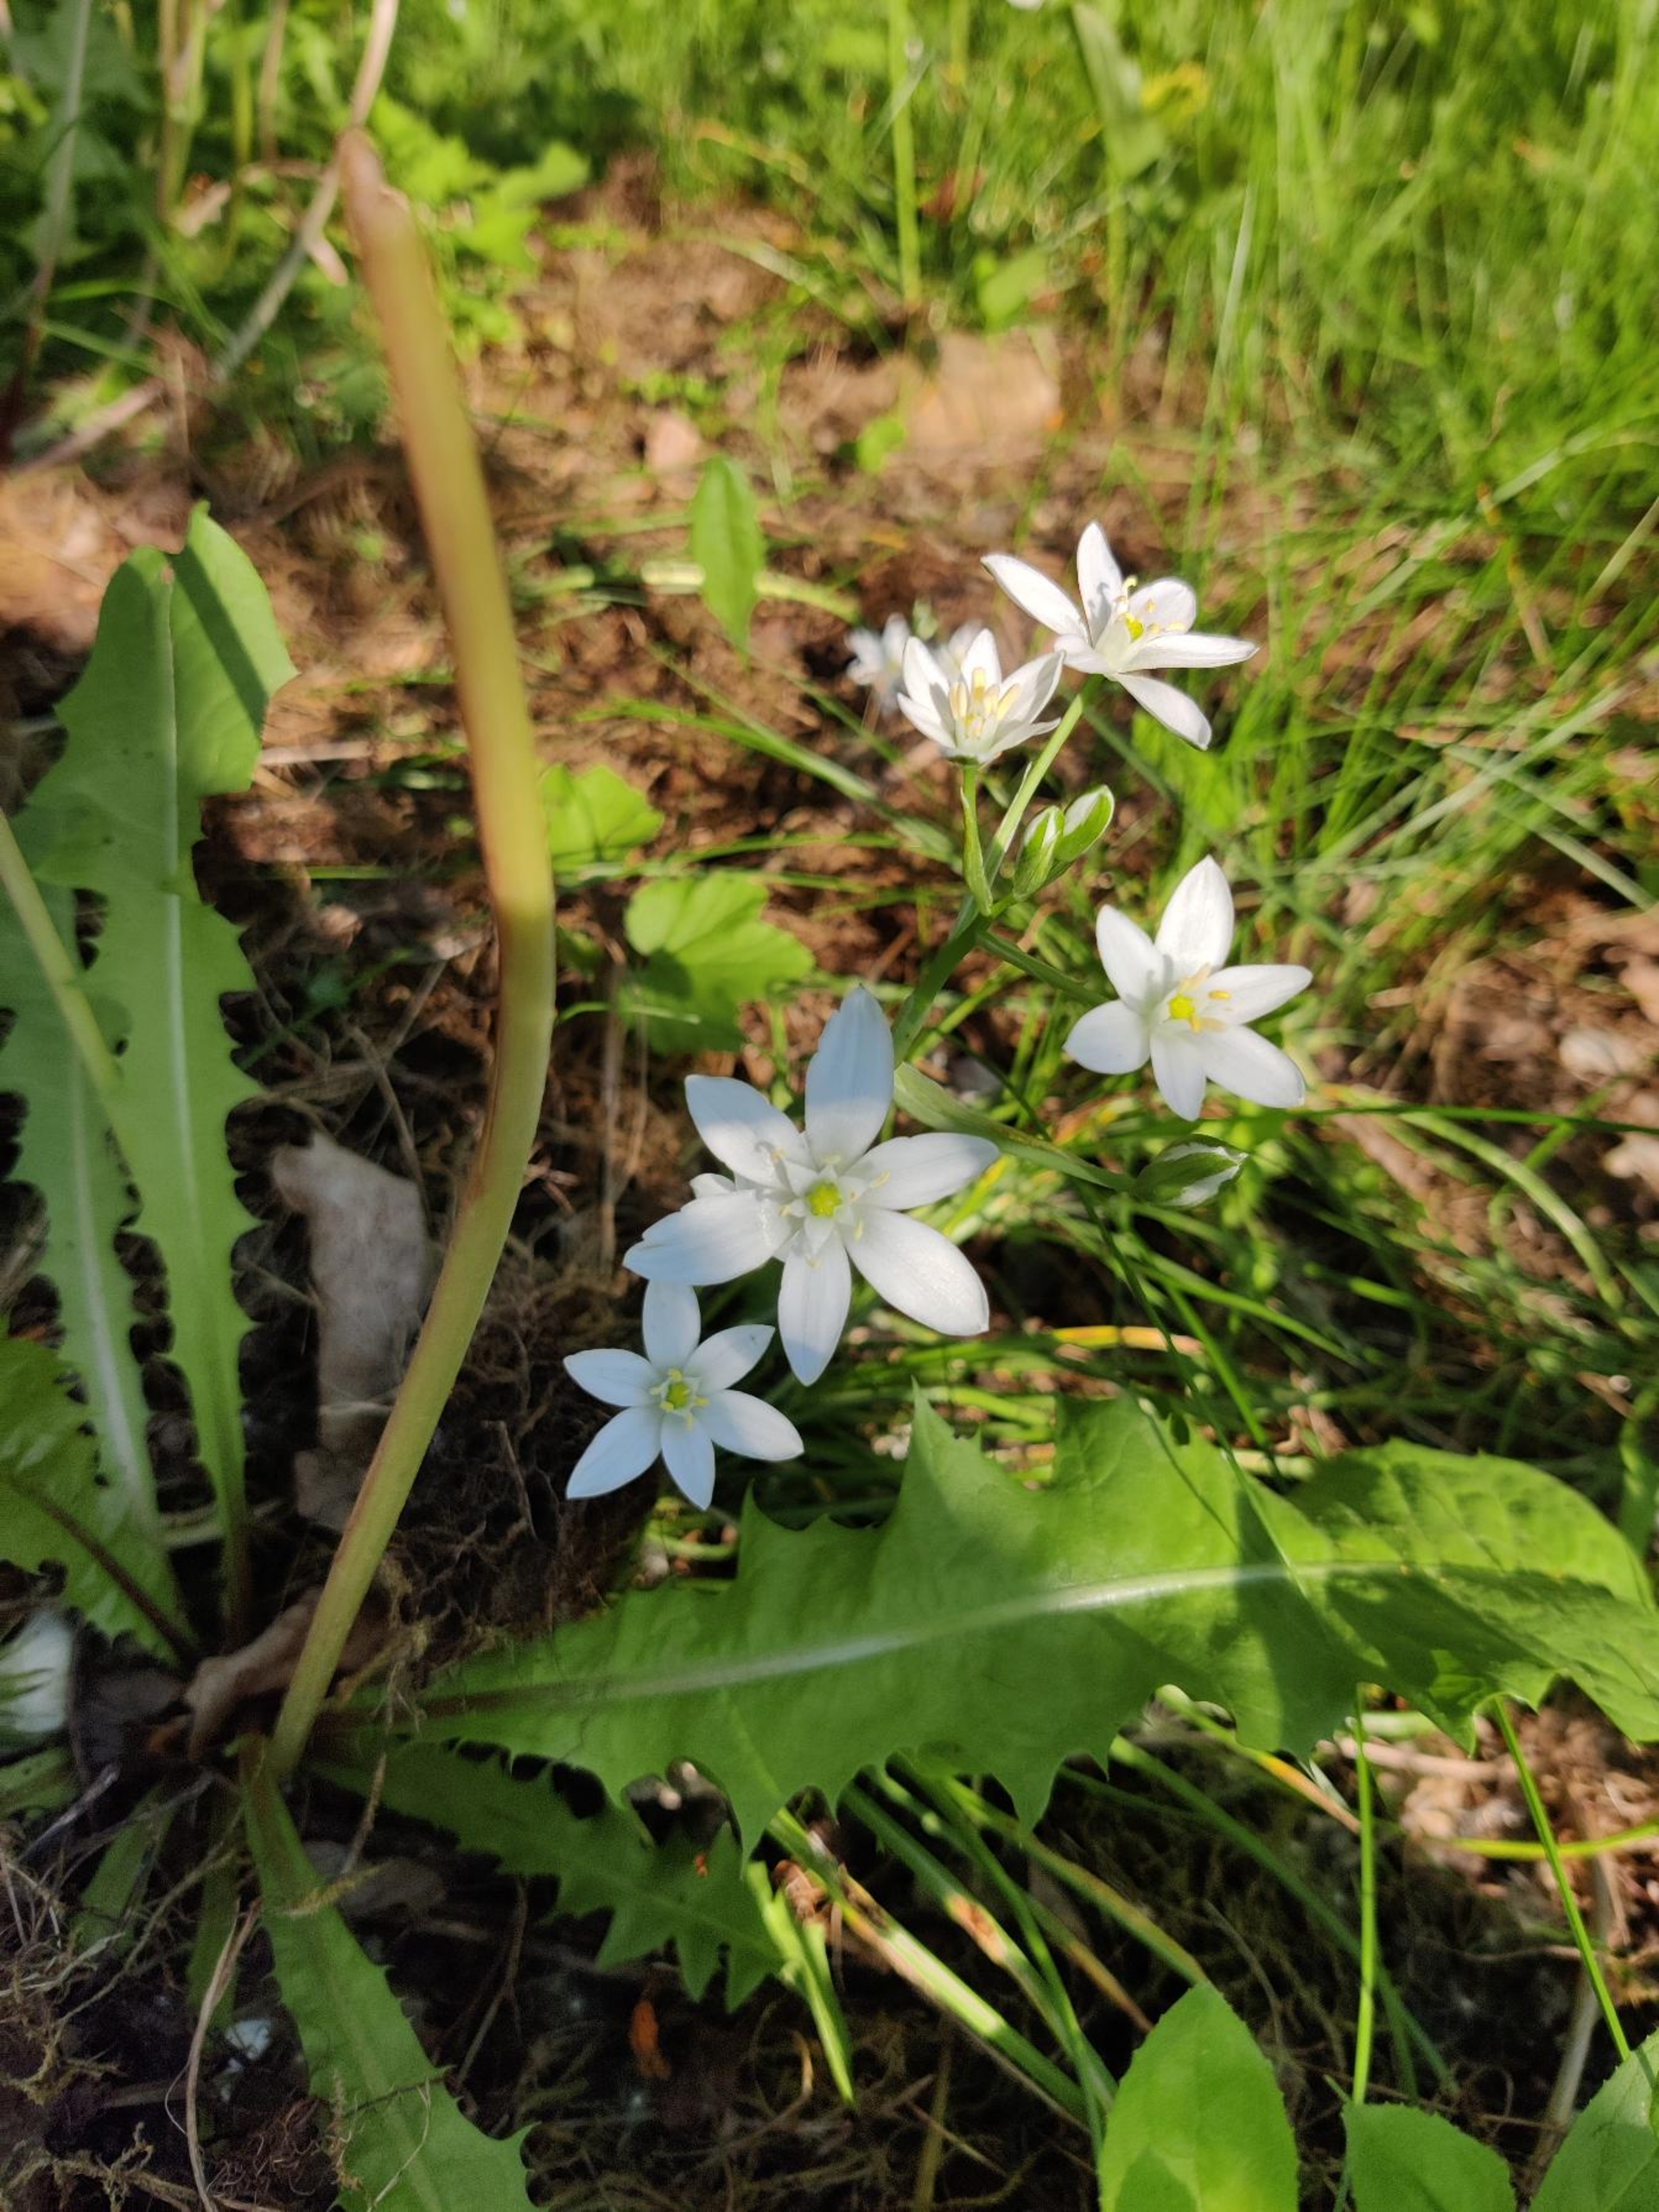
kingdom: Plantae
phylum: Tracheophyta
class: Liliopsida
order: Asparagales
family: Asparagaceae
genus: Ornithogalum
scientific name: Ornithogalum umbellatum
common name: Kost-fuglemælk
